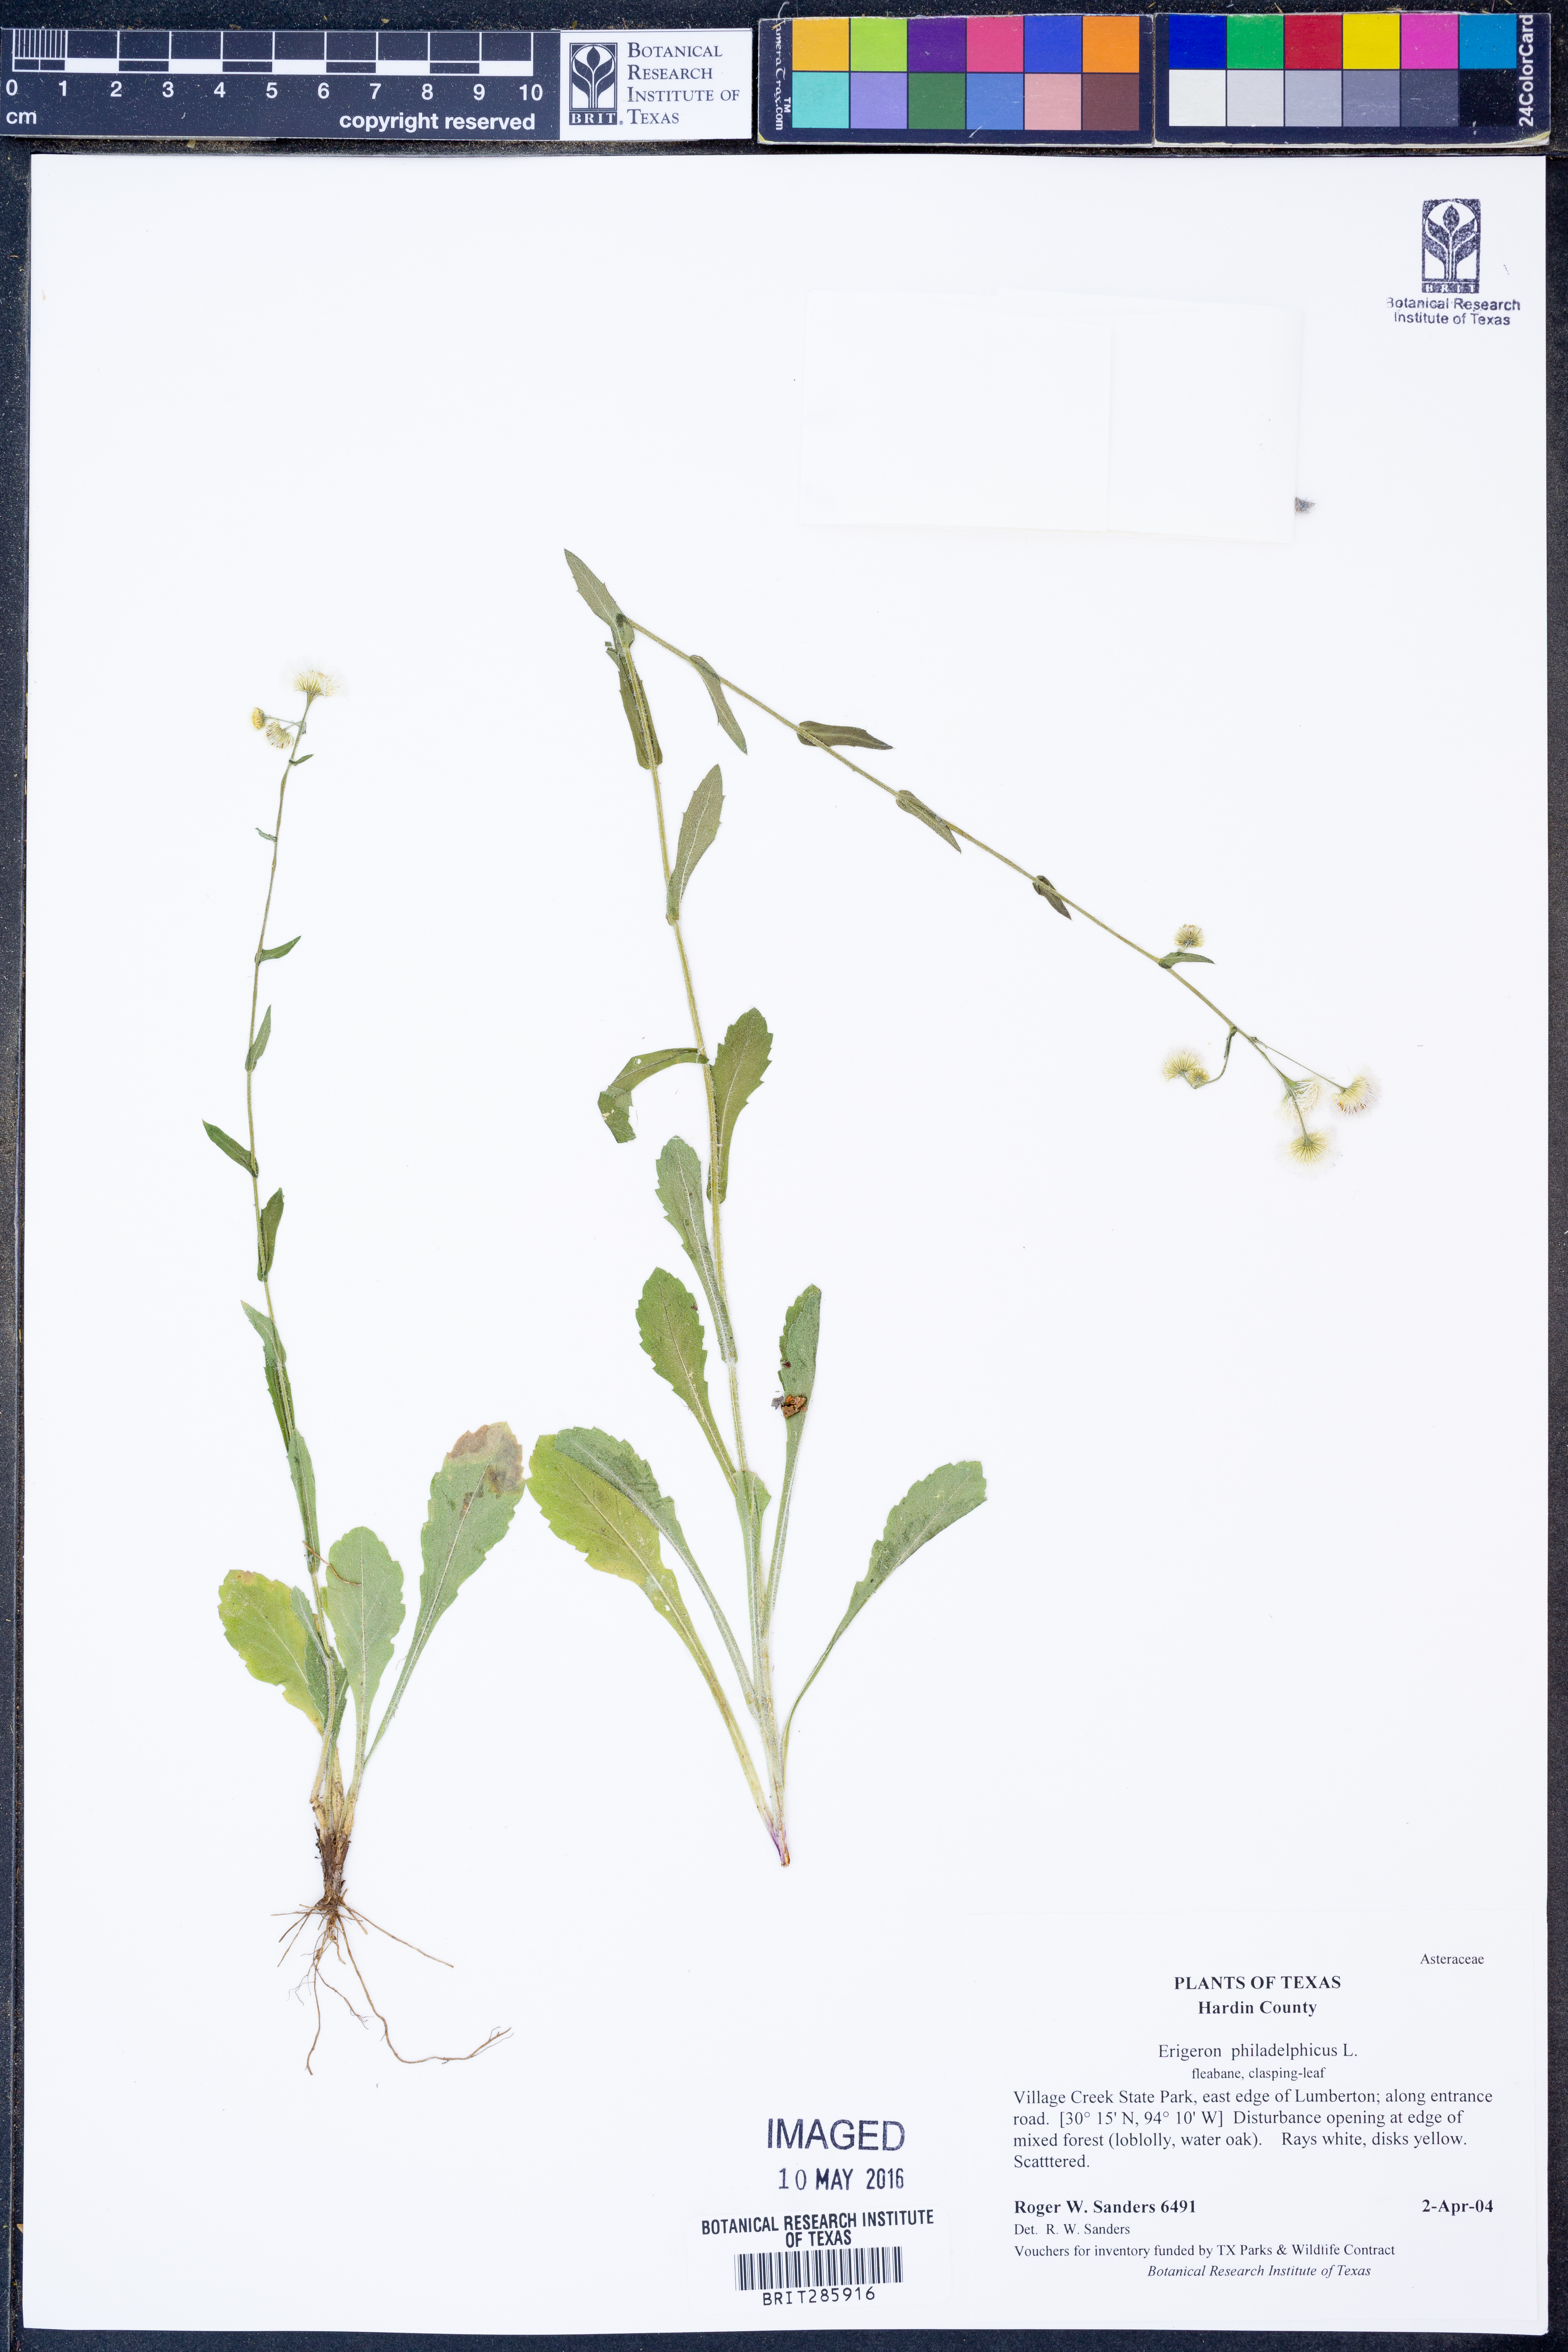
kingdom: Plantae
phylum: Tracheophyta
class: Magnoliopsida
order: Asterales
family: Asteraceae
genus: Erigeron
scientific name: Erigeron philadelphicus
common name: Robin's-plantain
